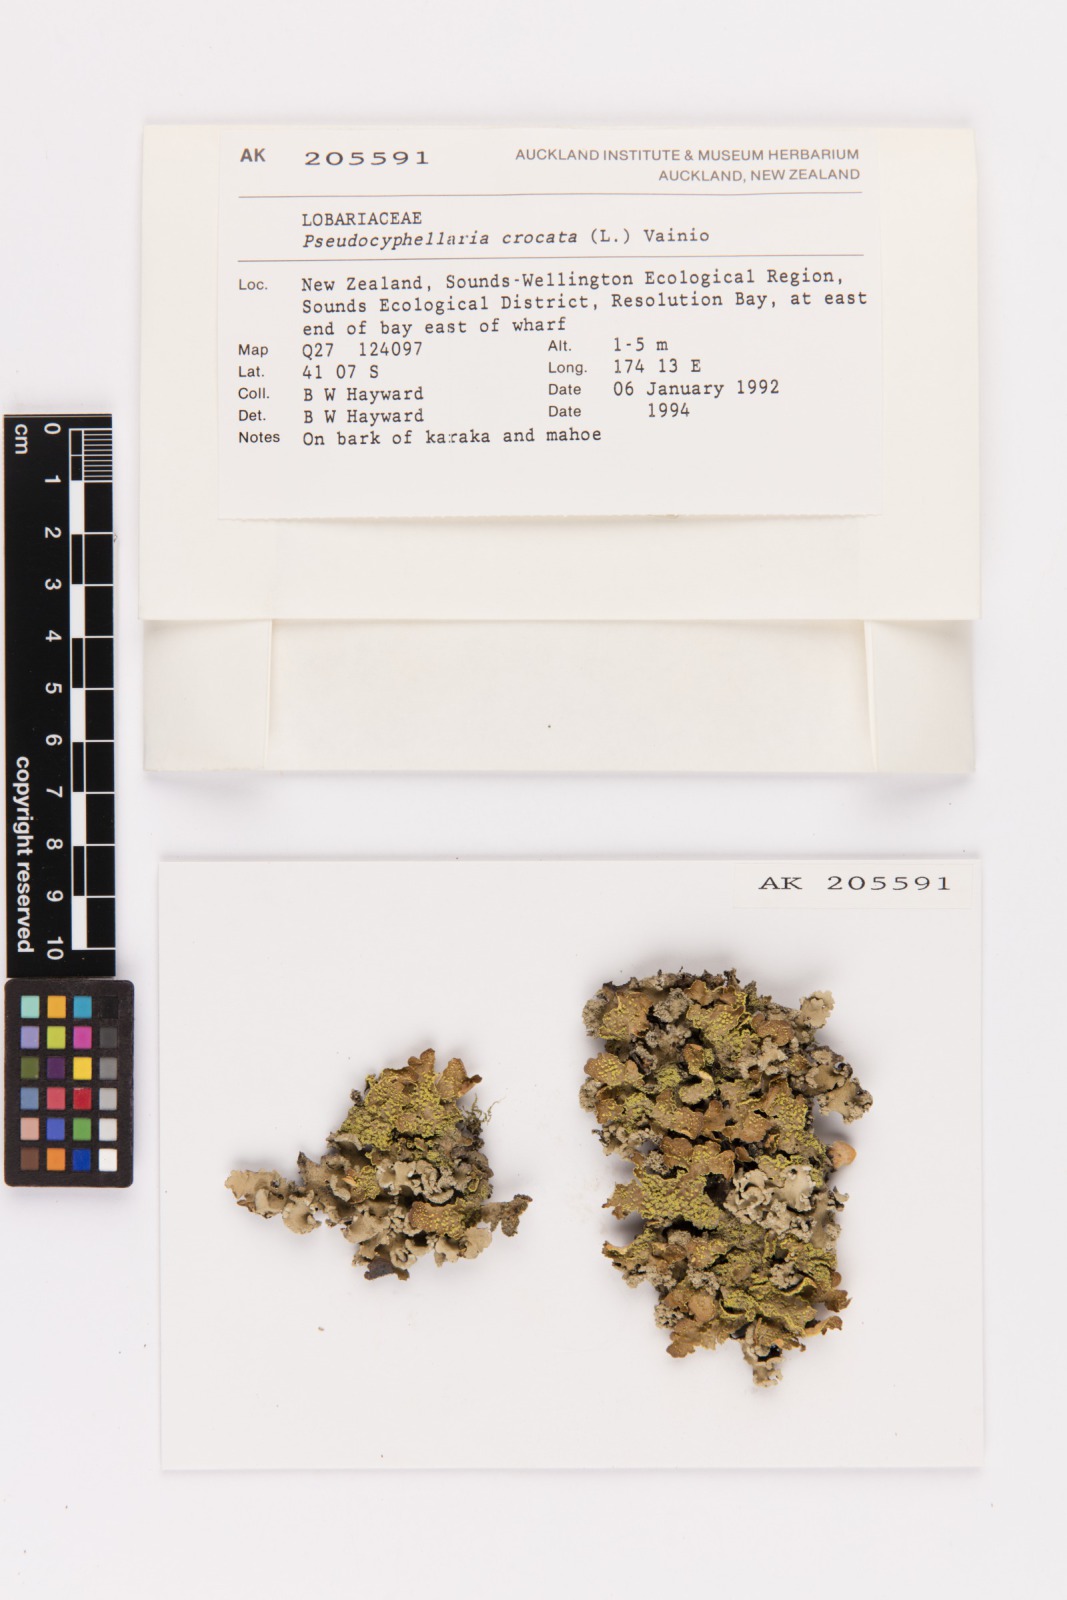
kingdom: Fungi
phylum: Ascomycota
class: Lecanoromycetes
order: Peltigerales
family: Lobariaceae
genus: Pseudocyphellaria
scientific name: Pseudocyphellaria crocata
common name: Golden specklebelly
